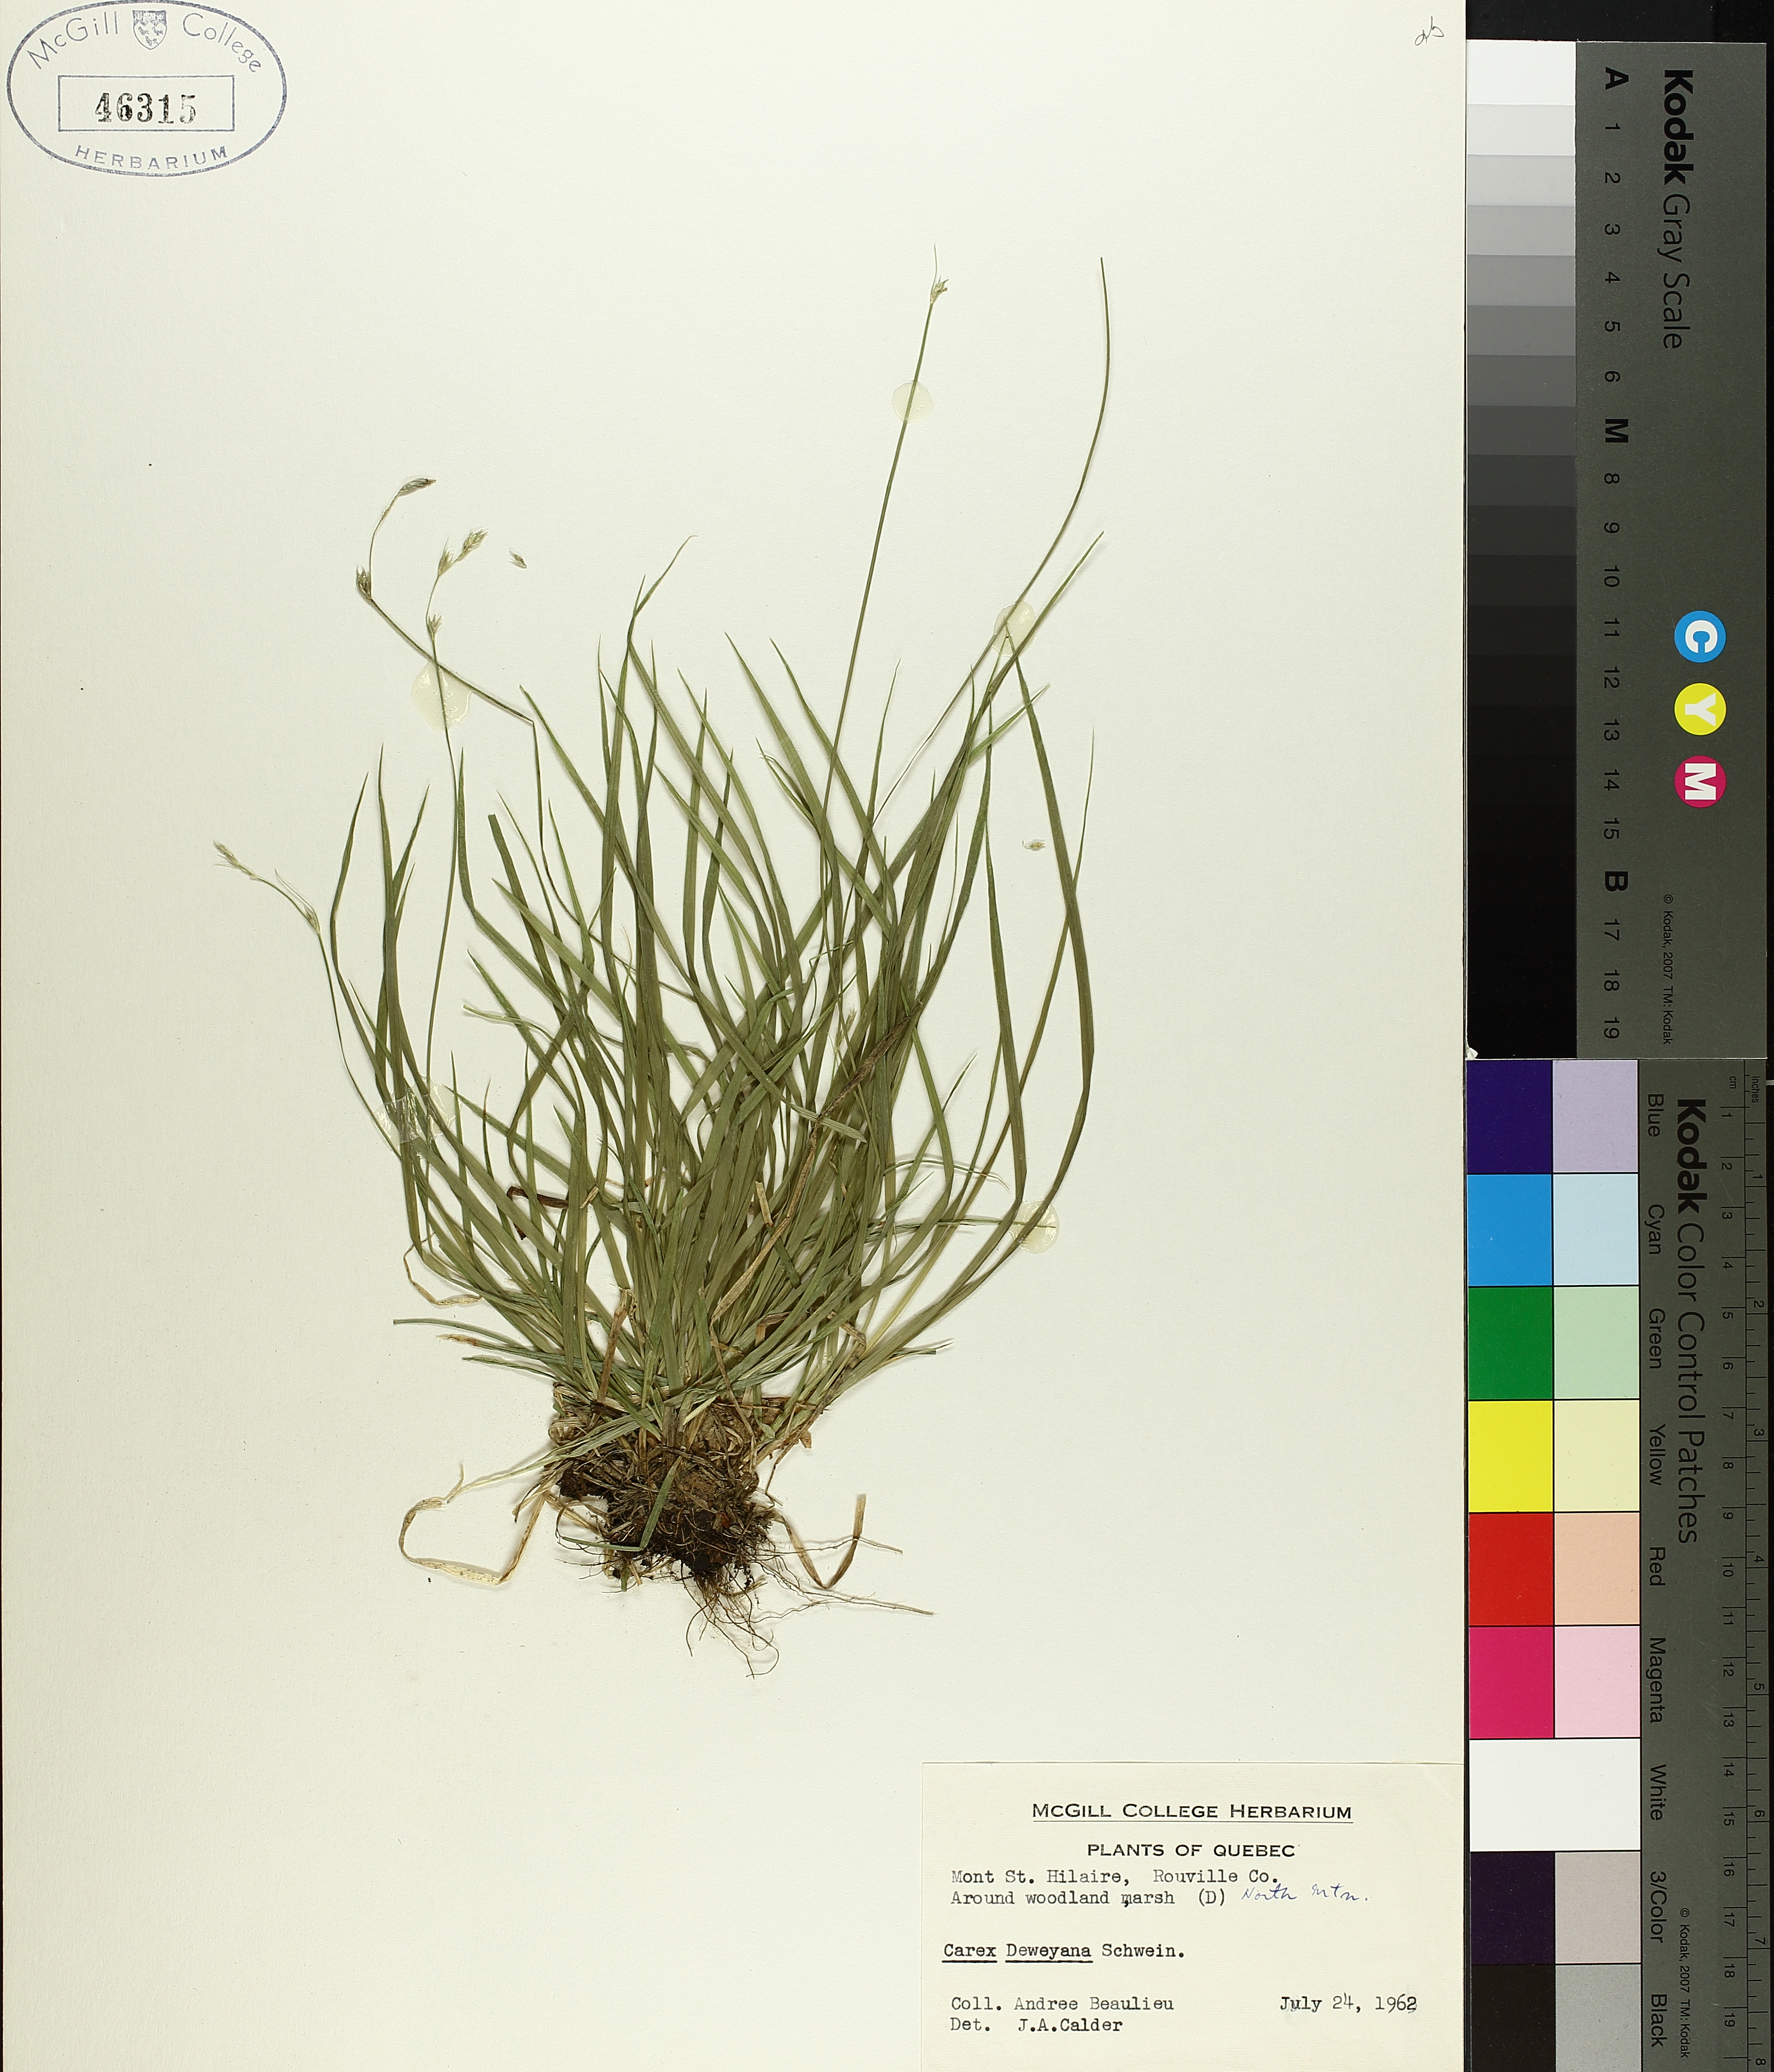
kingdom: Plantae
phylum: Tracheophyta
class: Liliopsida
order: Poales
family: Cyperaceae
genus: Carex
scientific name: Carex deweyana
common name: Dewey's sedge
